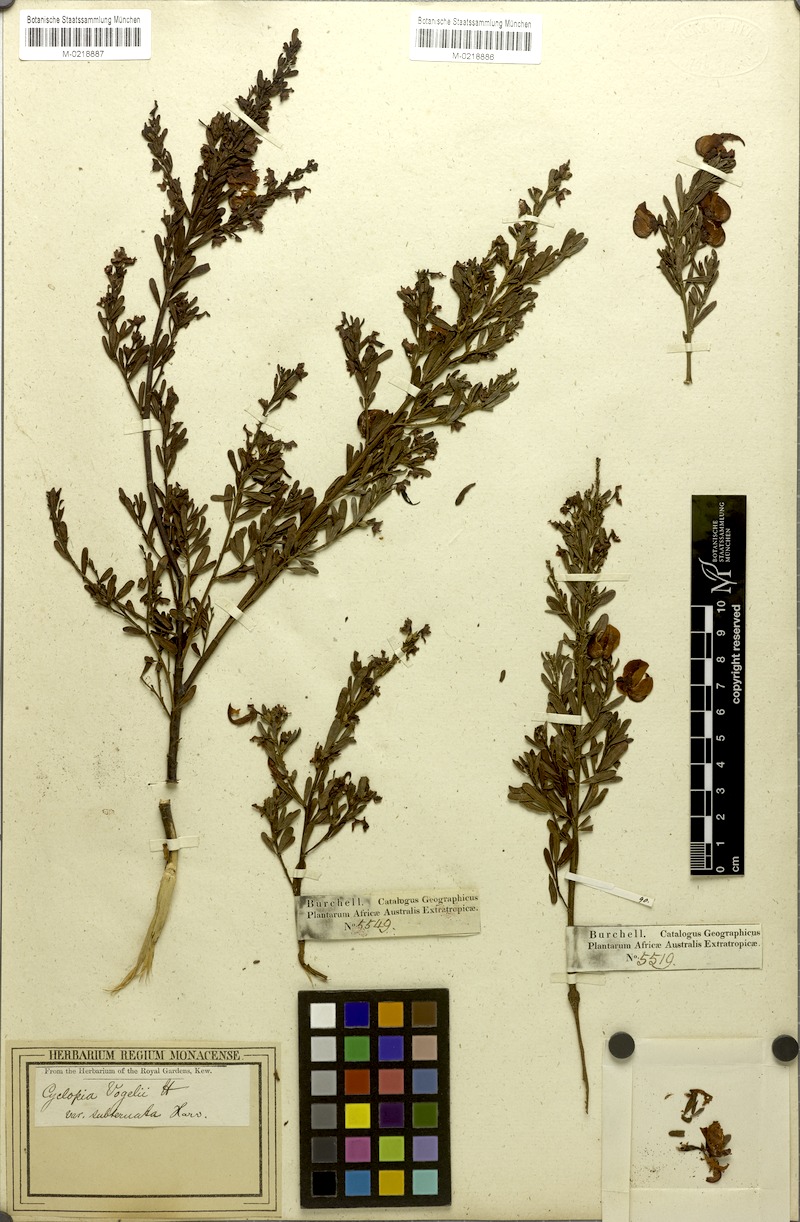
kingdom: Plantae
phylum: Tracheophyta
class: Magnoliopsida
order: Fabales
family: Fabaceae
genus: Cyclopia
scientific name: Cyclopia subternata
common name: Honeybush tea
